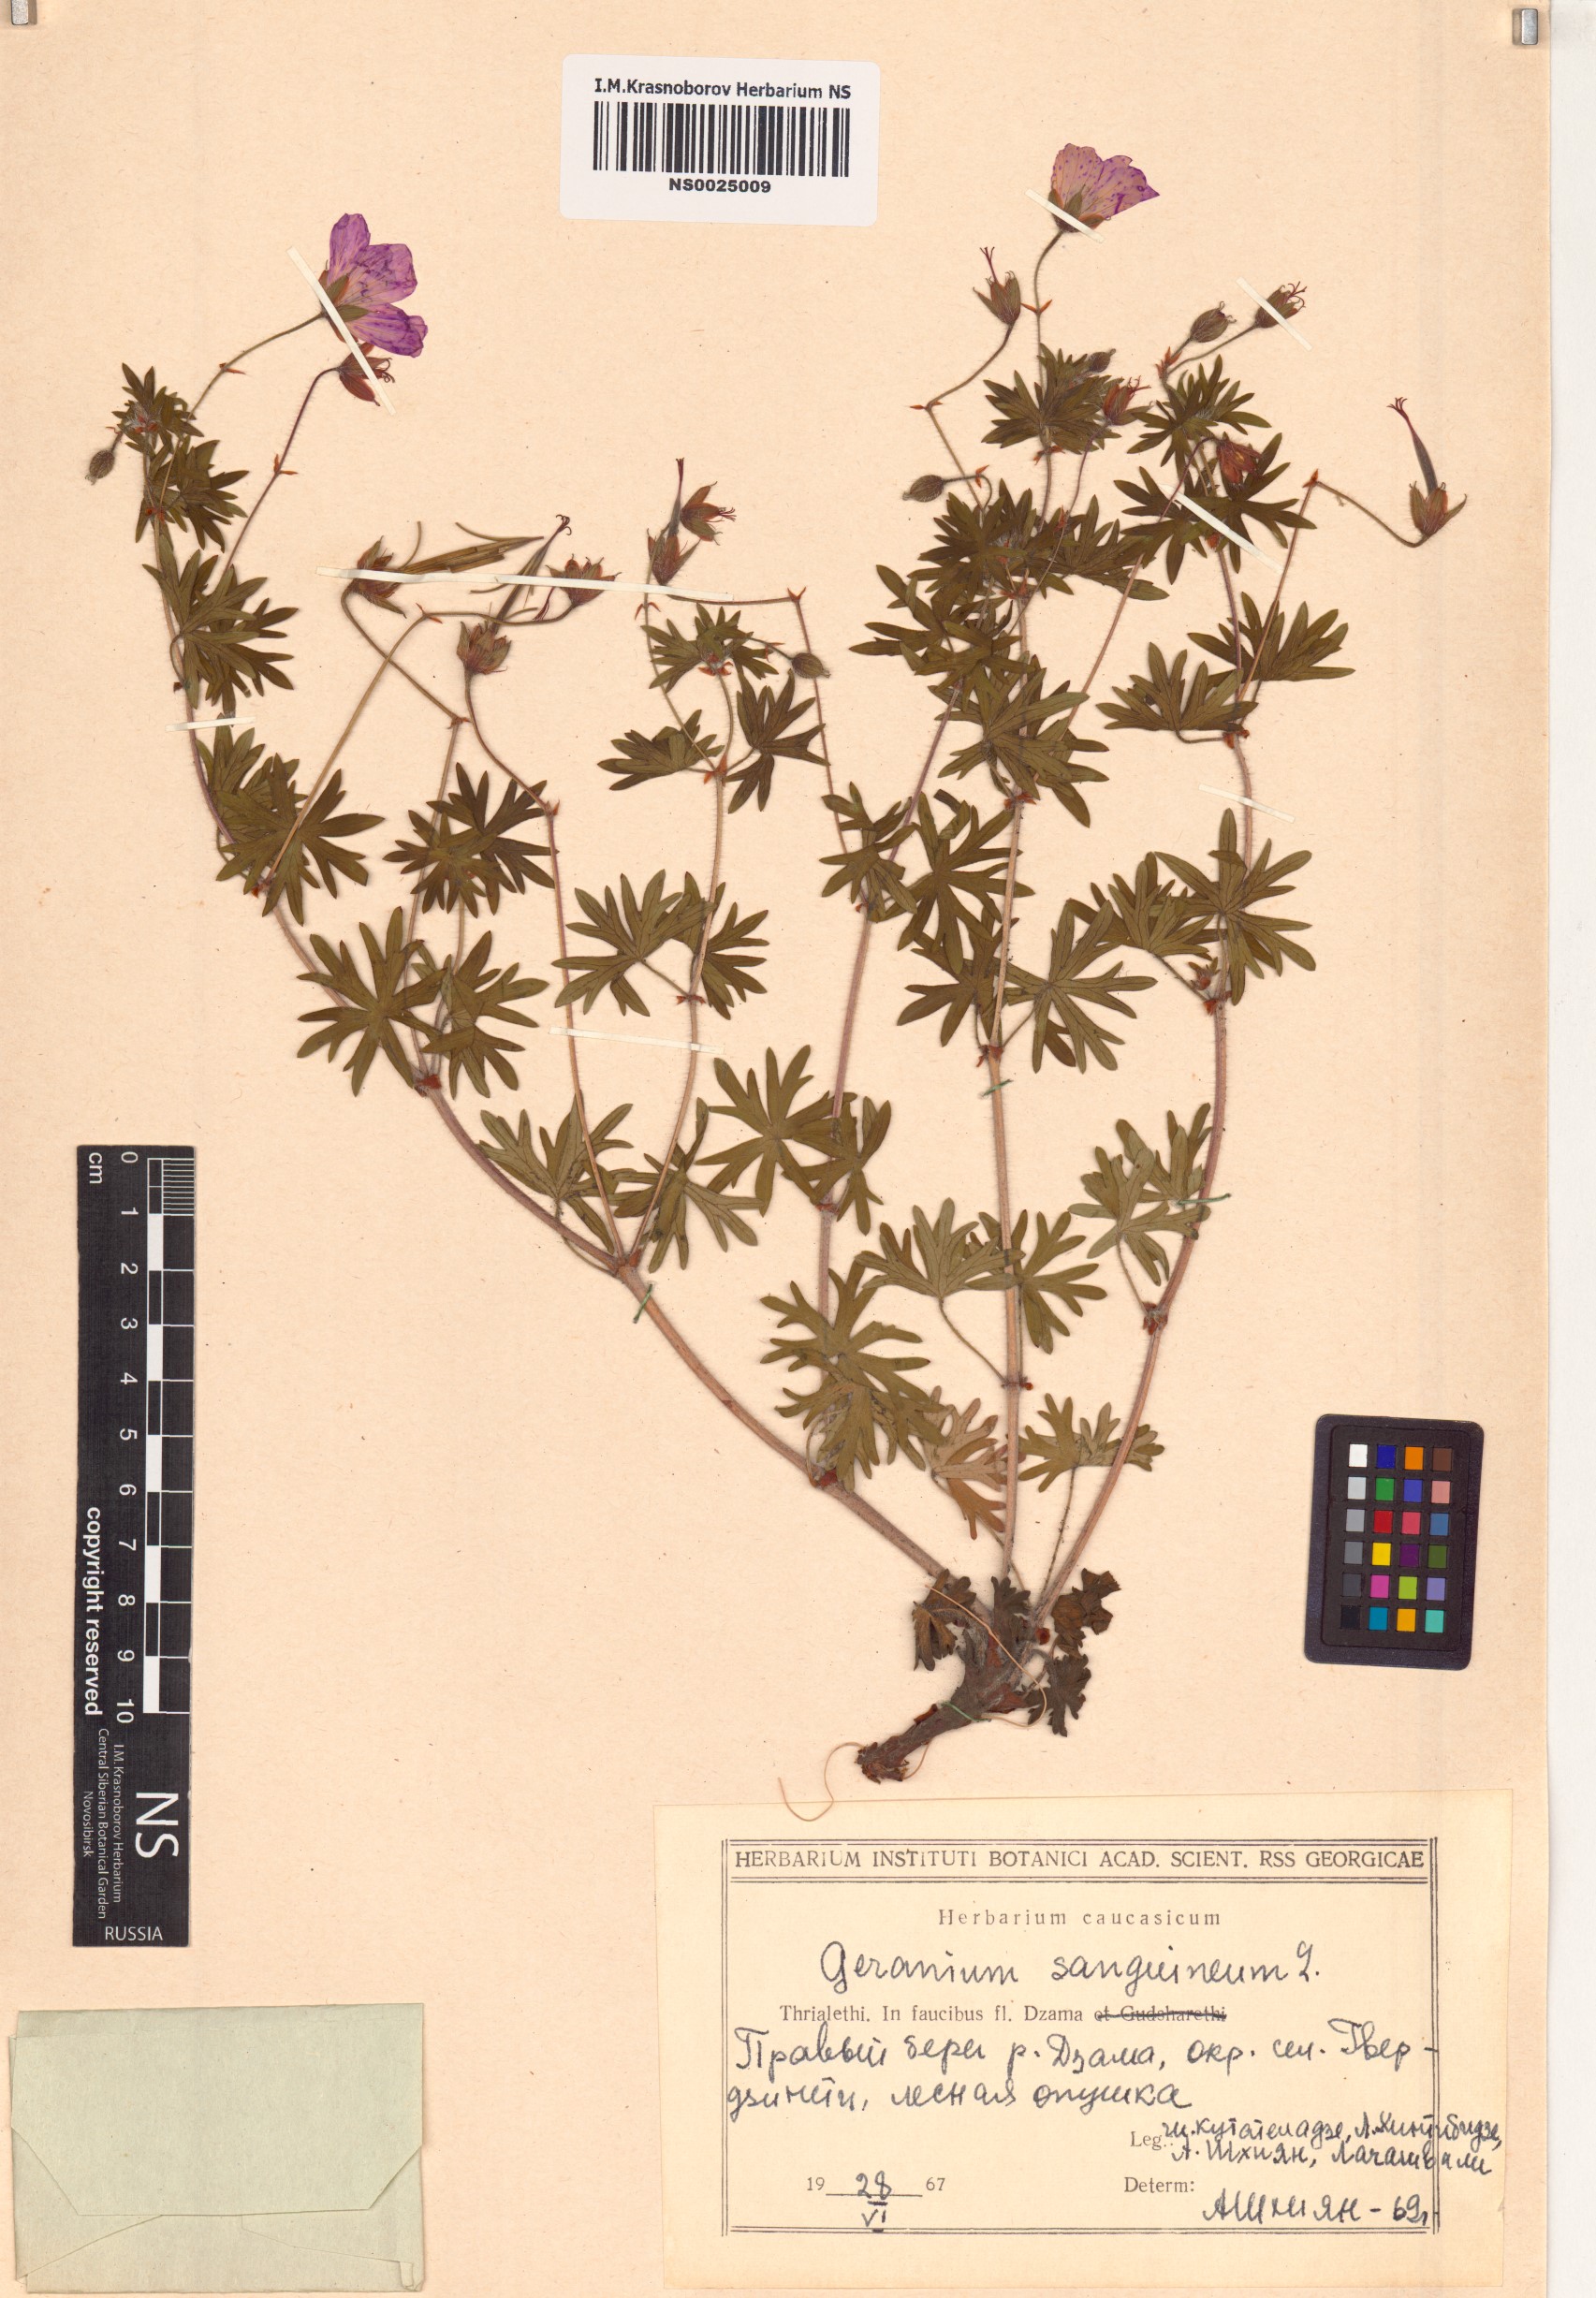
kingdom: Plantae
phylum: Tracheophyta
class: Magnoliopsida
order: Geraniales
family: Geraniaceae
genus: Geranium
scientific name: Geranium sanguineum
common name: Bloody crane's-bill
